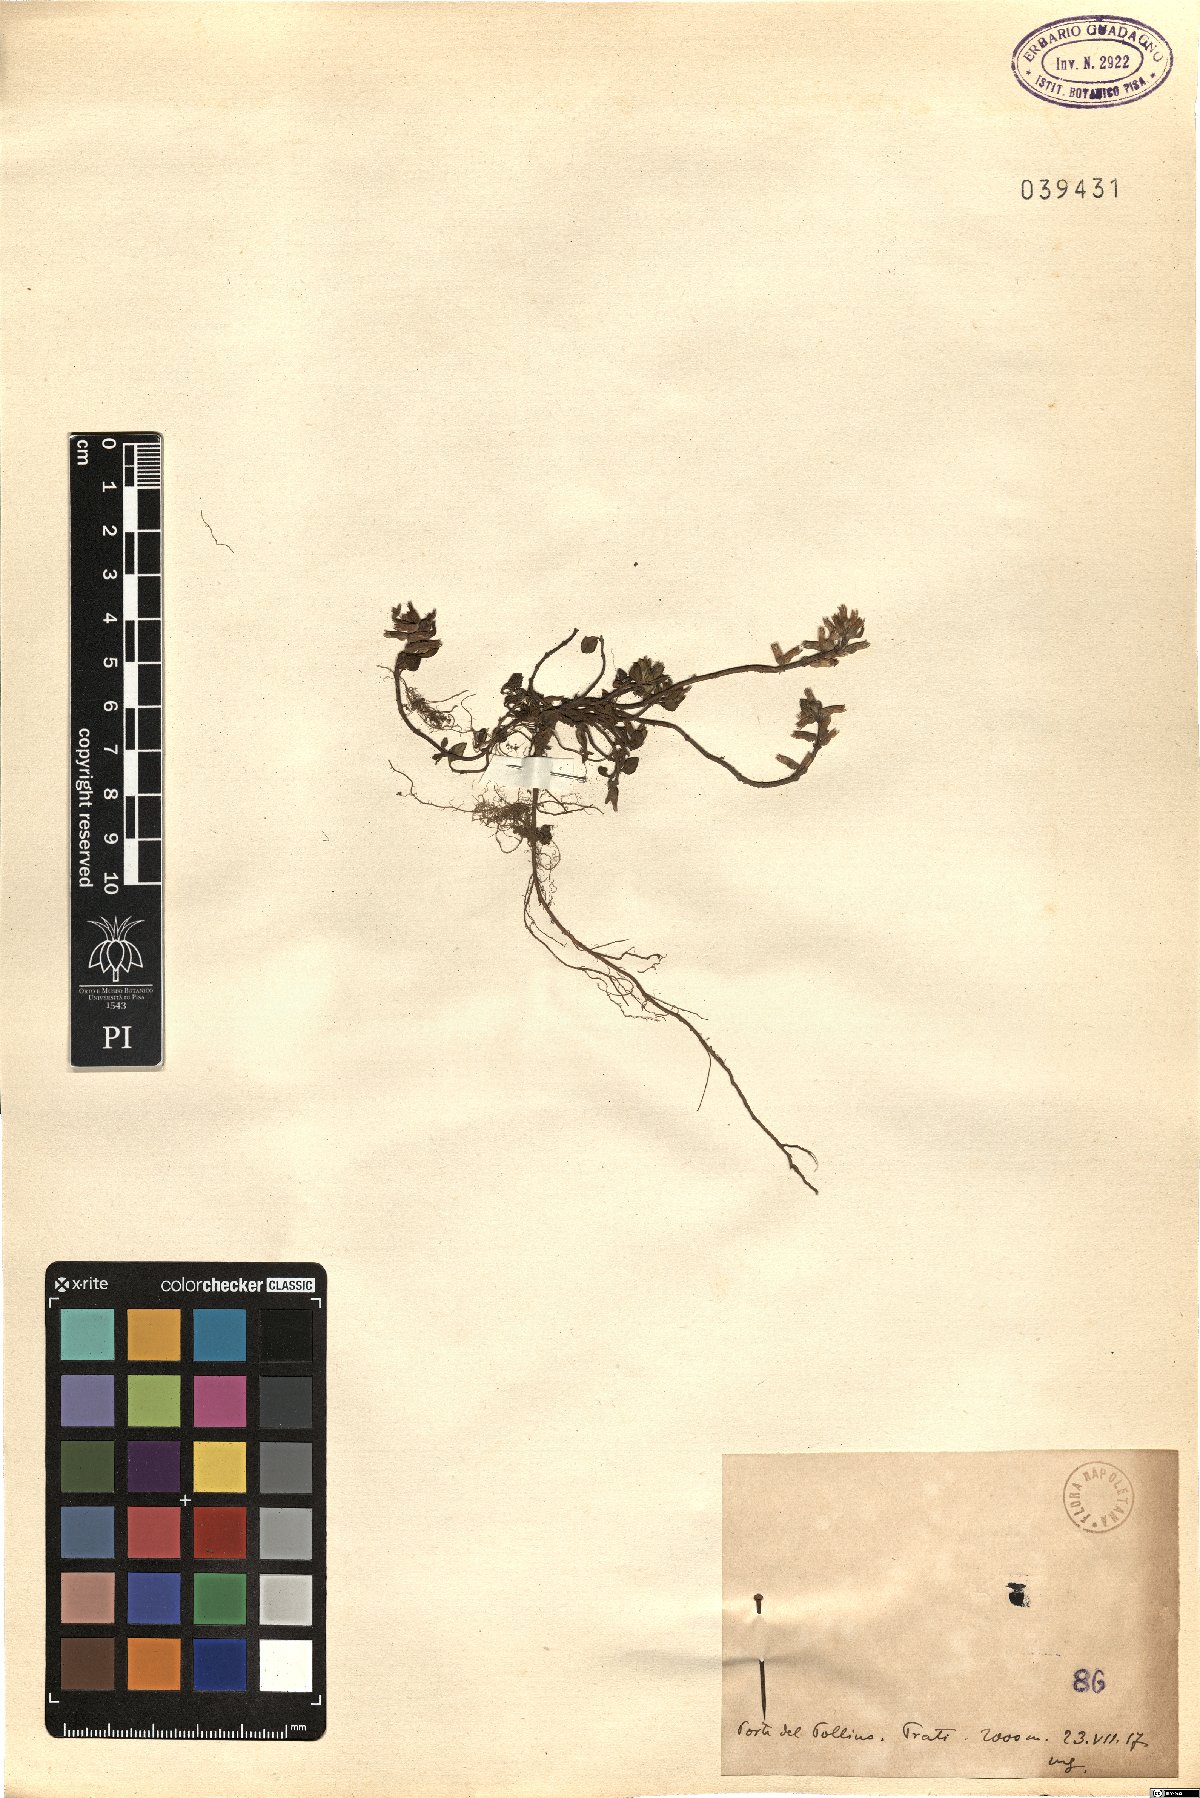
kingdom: Plantae
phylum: Tracheophyta
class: Magnoliopsida
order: Lamiales
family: Lamiaceae
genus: Calamintha
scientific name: Calamintha
